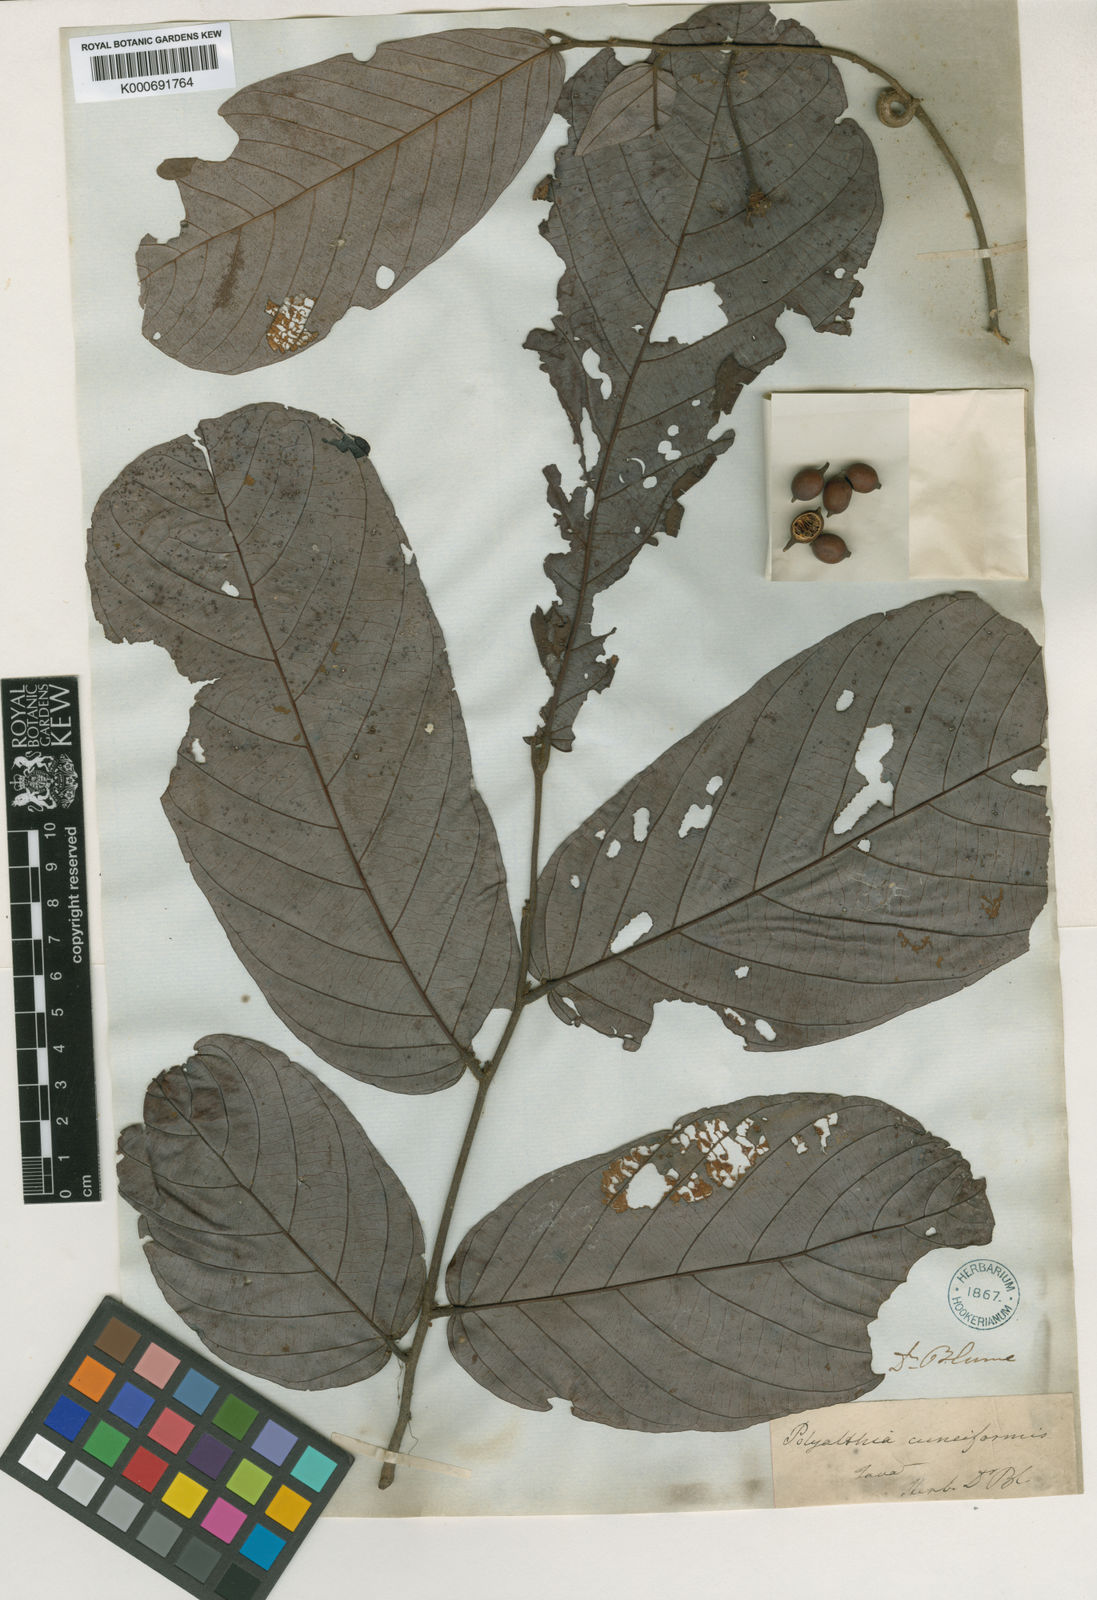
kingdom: Plantae
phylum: Tracheophyta
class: Magnoliopsida
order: Magnoliales
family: Annonaceae
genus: Friesodielsia
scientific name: Friesodielsia cuneiformis
